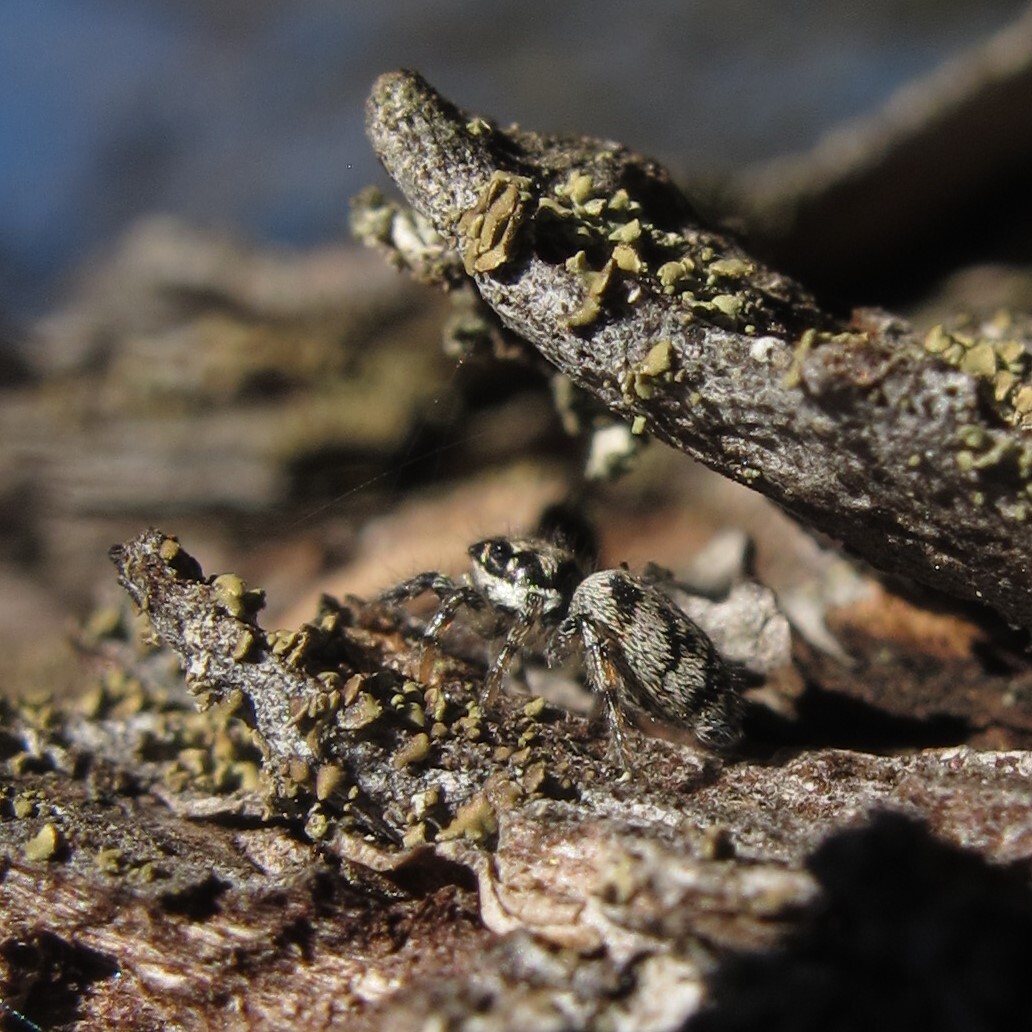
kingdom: Animalia
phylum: Arthropoda
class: Arachnida
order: Araneae
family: Salticidae
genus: Salticus
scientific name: Salticus cingulatus
